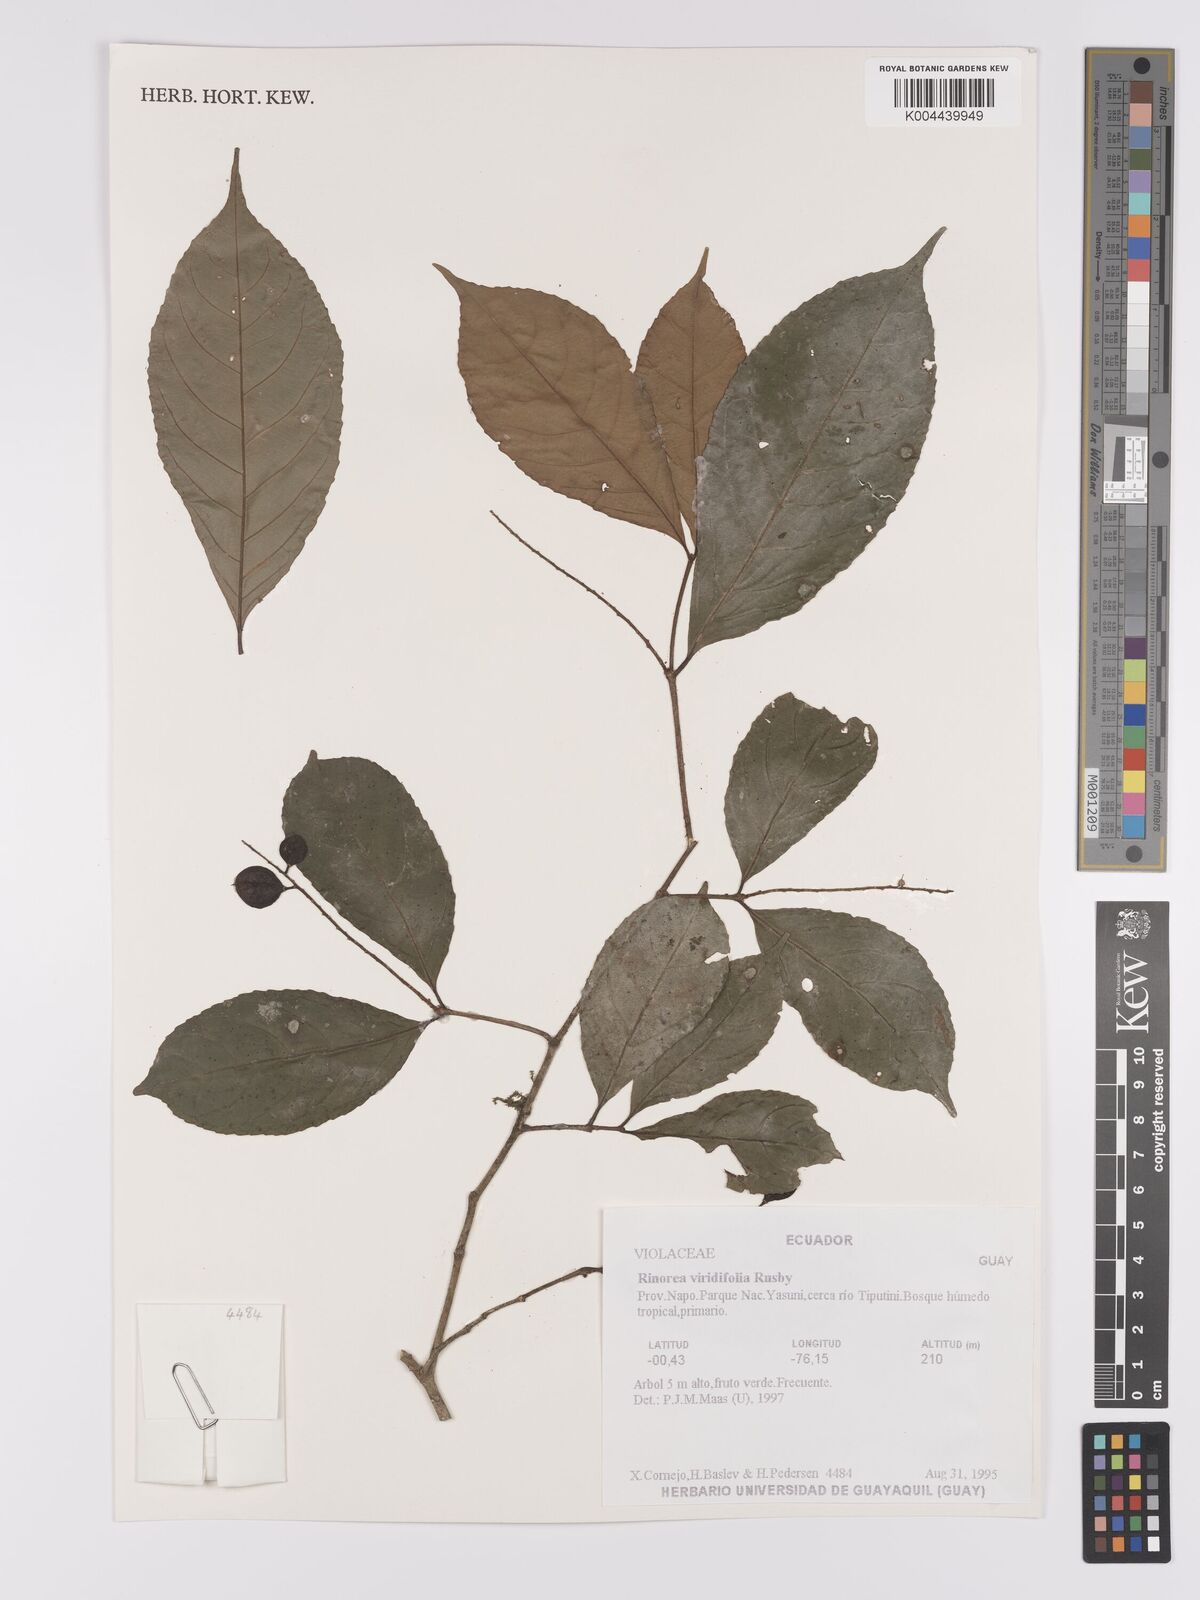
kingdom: Plantae
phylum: Tracheophyta
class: Magnoliopsida
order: Malpighiales
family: Violaceae
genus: Rinorea
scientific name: Rinorea viridifolia
